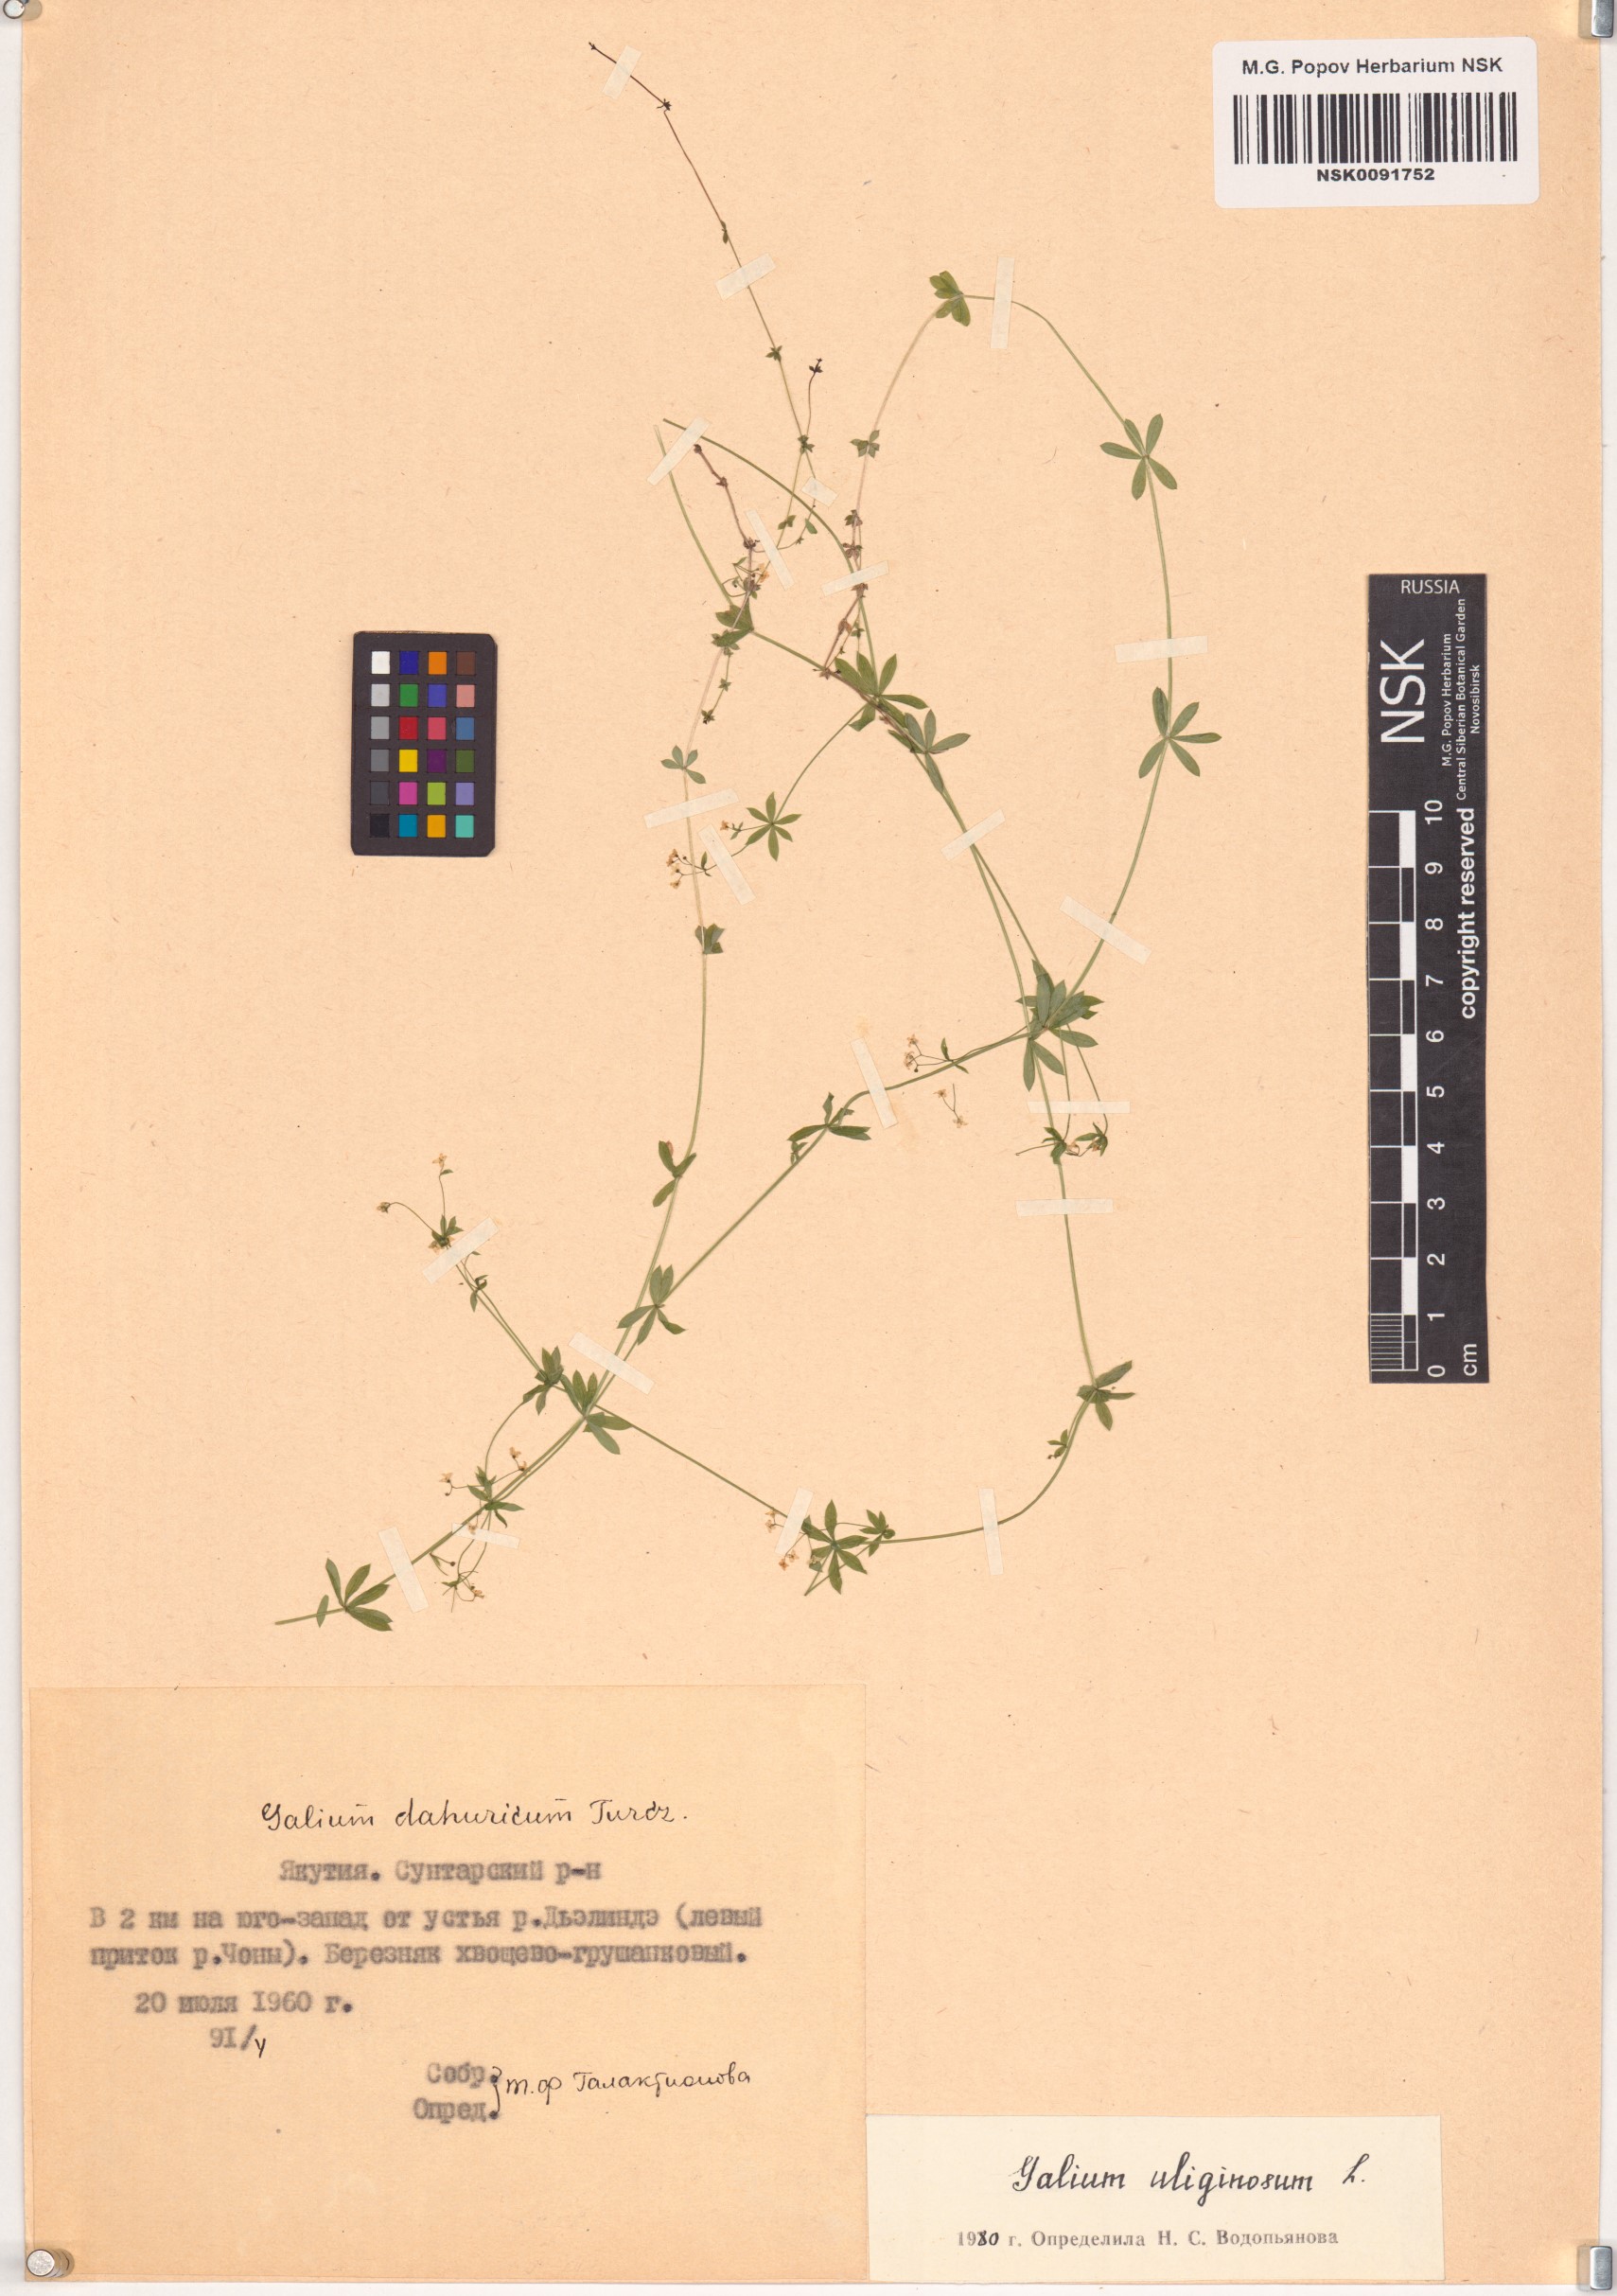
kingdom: Plantae
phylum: Tracheophyta
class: Magnoliopsida
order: Gentianales
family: Rubiaceae
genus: Galium
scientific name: Galium uliginosum
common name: Fen bedstraw
